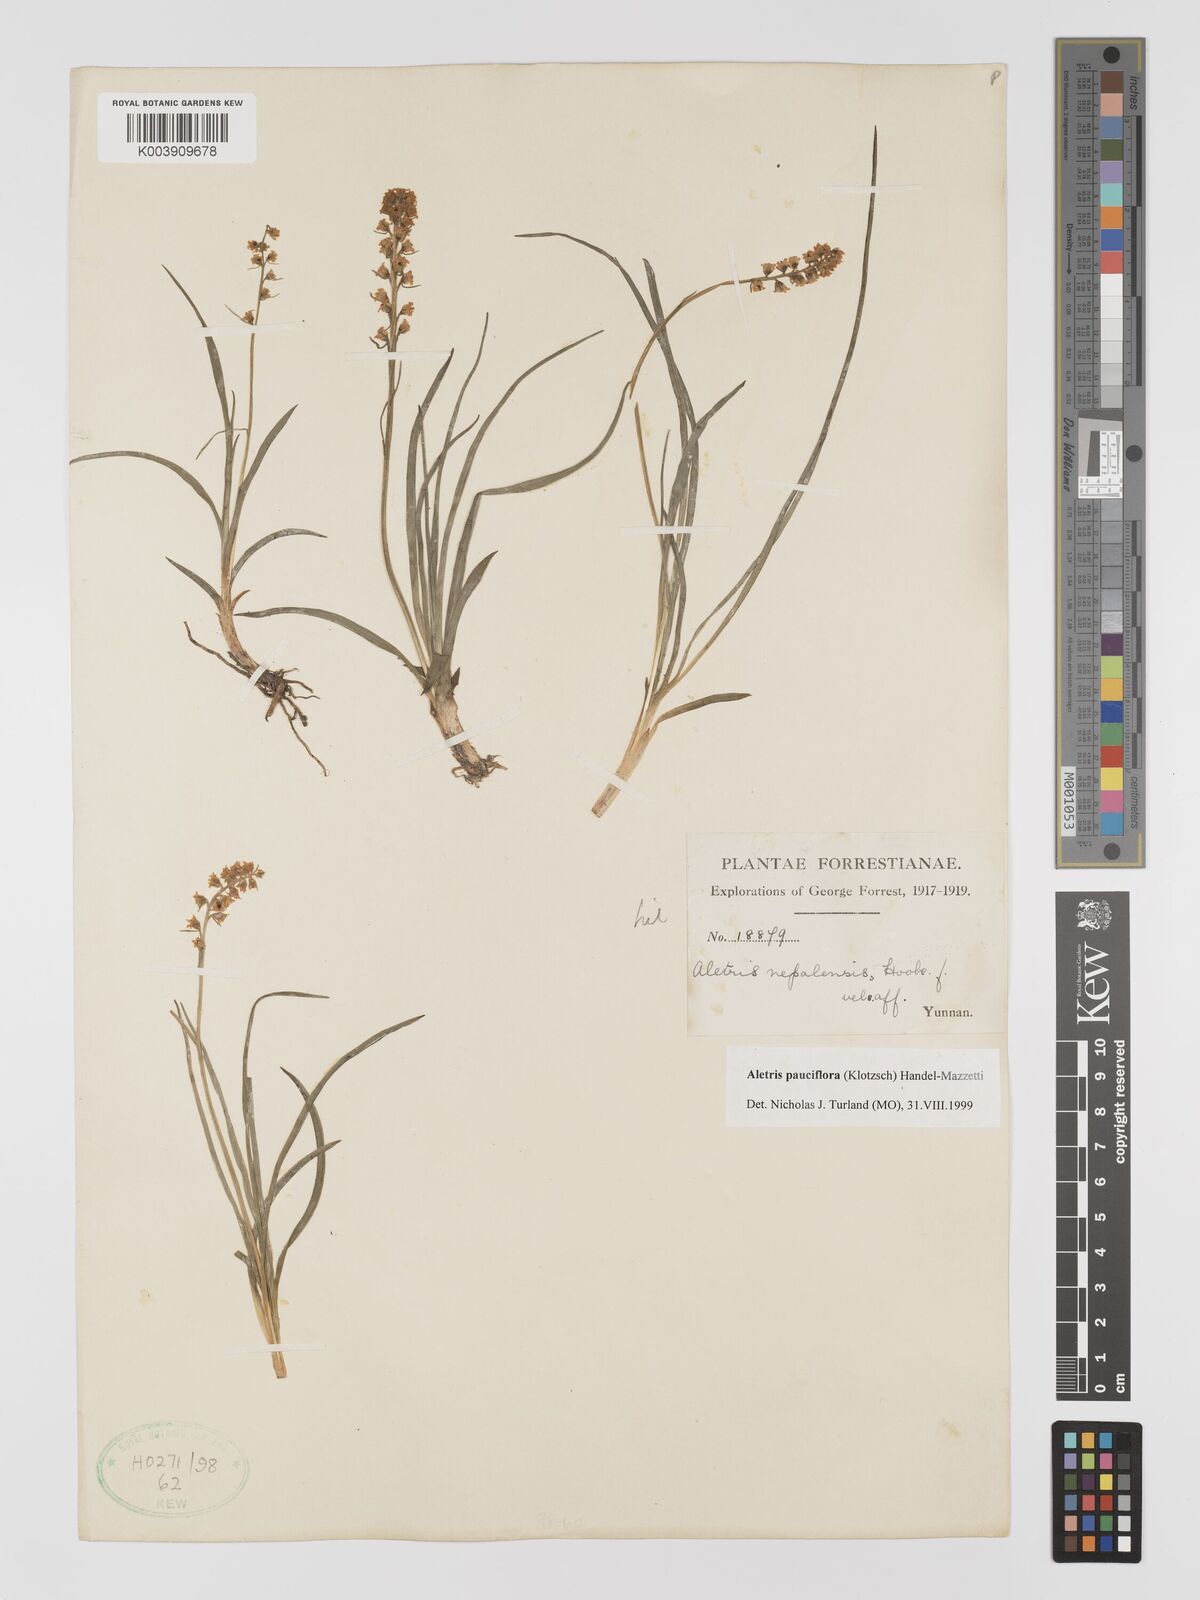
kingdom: Plantae
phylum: Tracheophyta
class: Liliopsida
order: Dioscoreales
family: Nartheciaceae
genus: Aletris
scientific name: Aletris pauciflora
